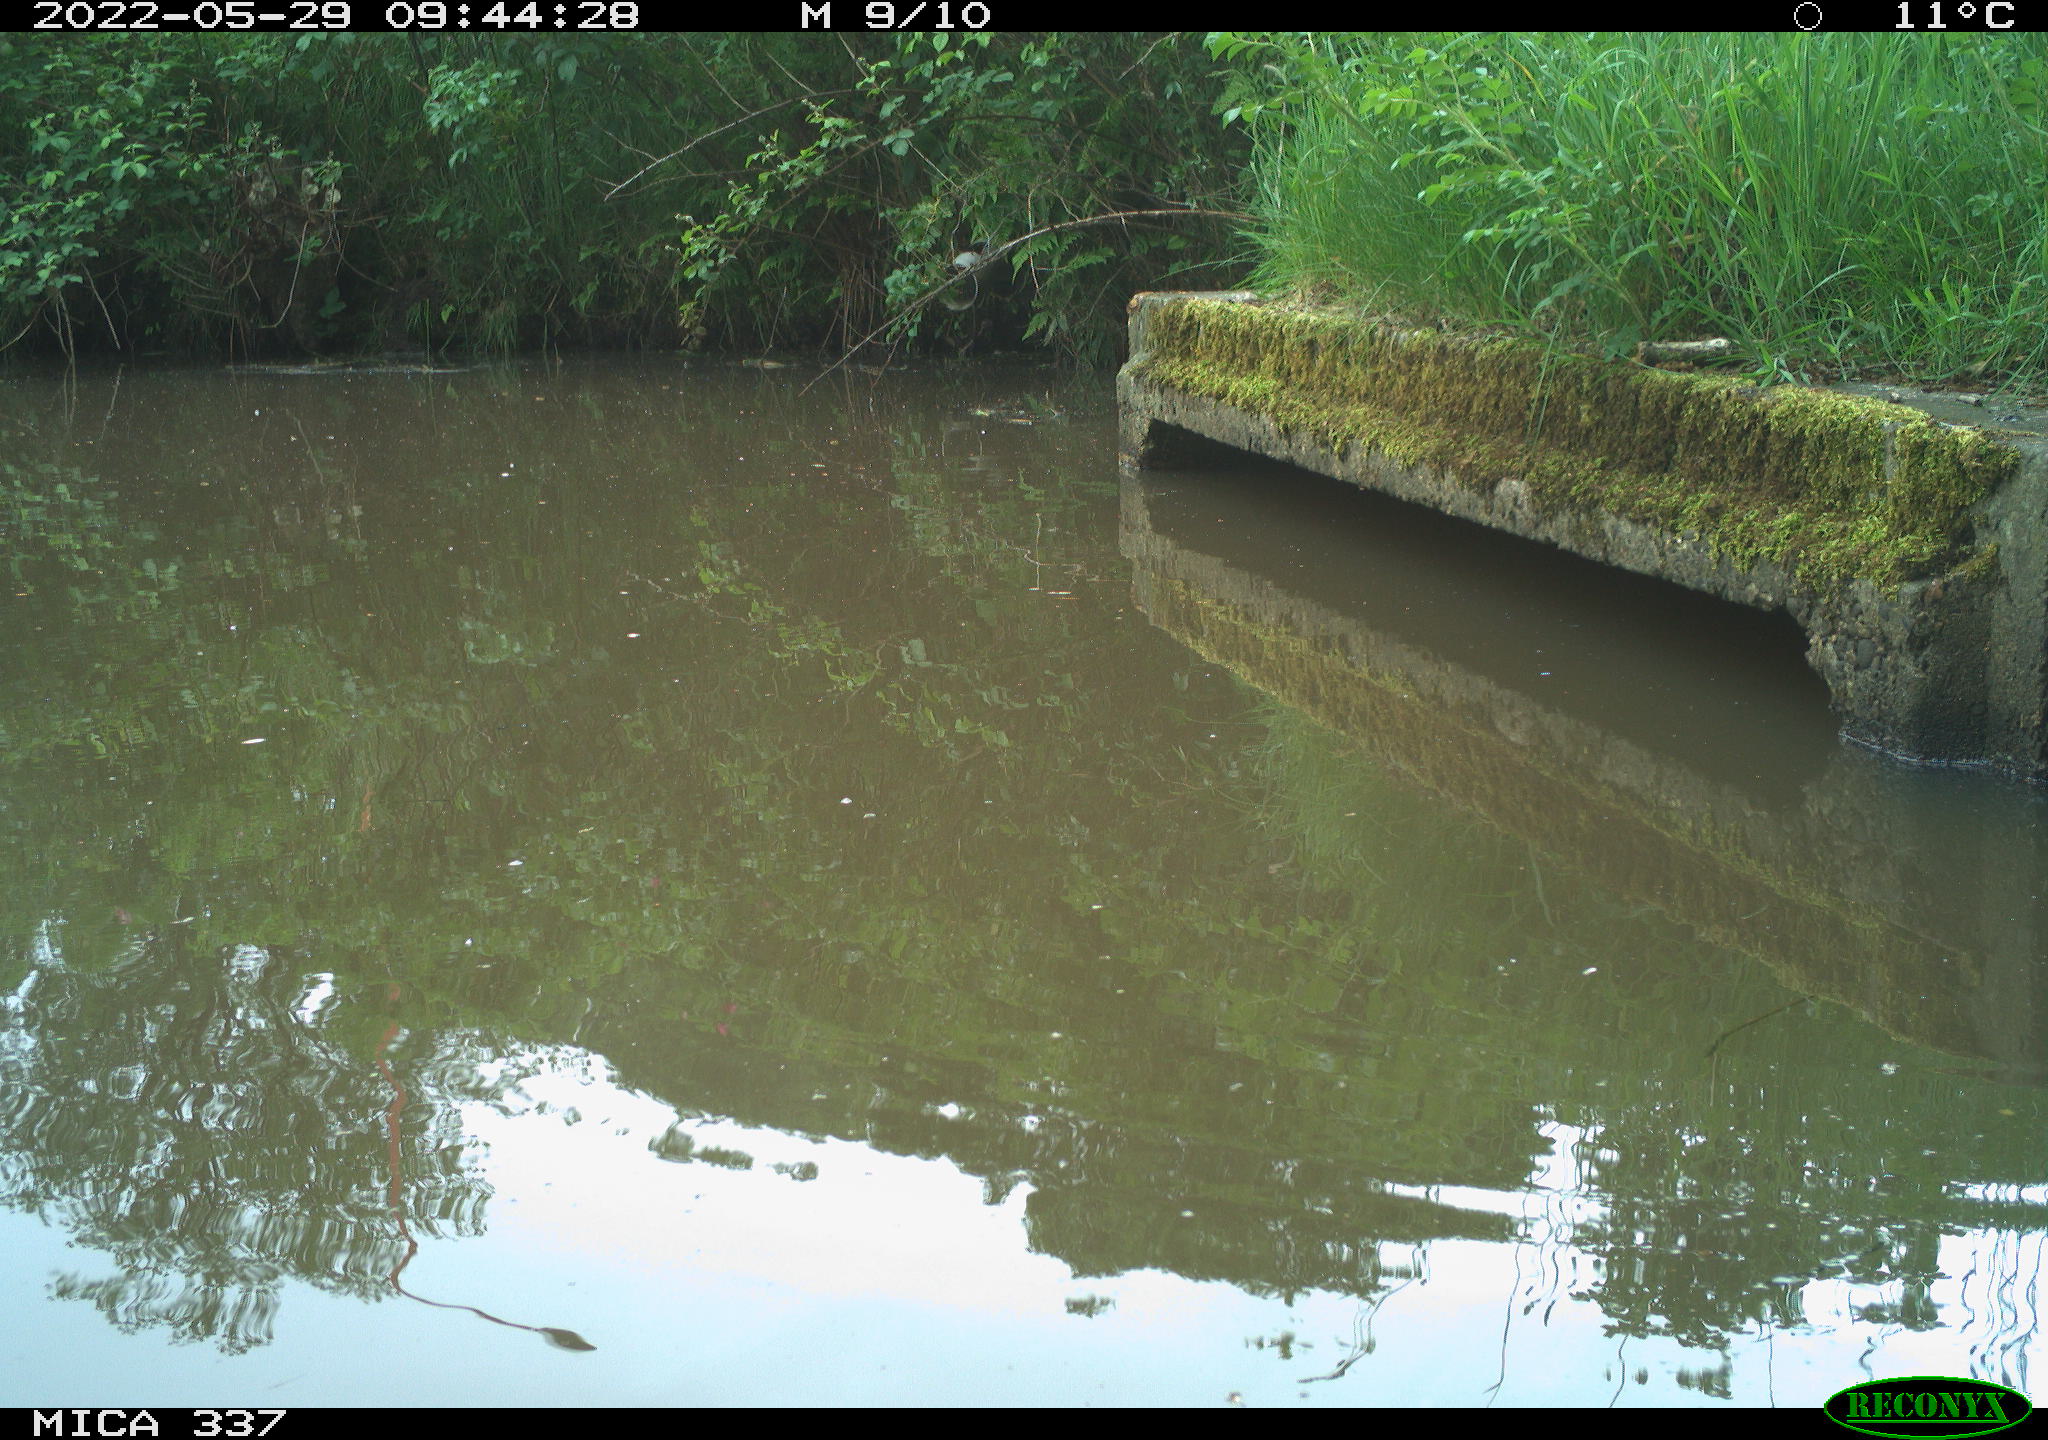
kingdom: Animalia
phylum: Chordata
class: Aves
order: Gruiformes
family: Rallidae
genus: Gallinula
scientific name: Gallinula chloropus
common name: Common moorhen
